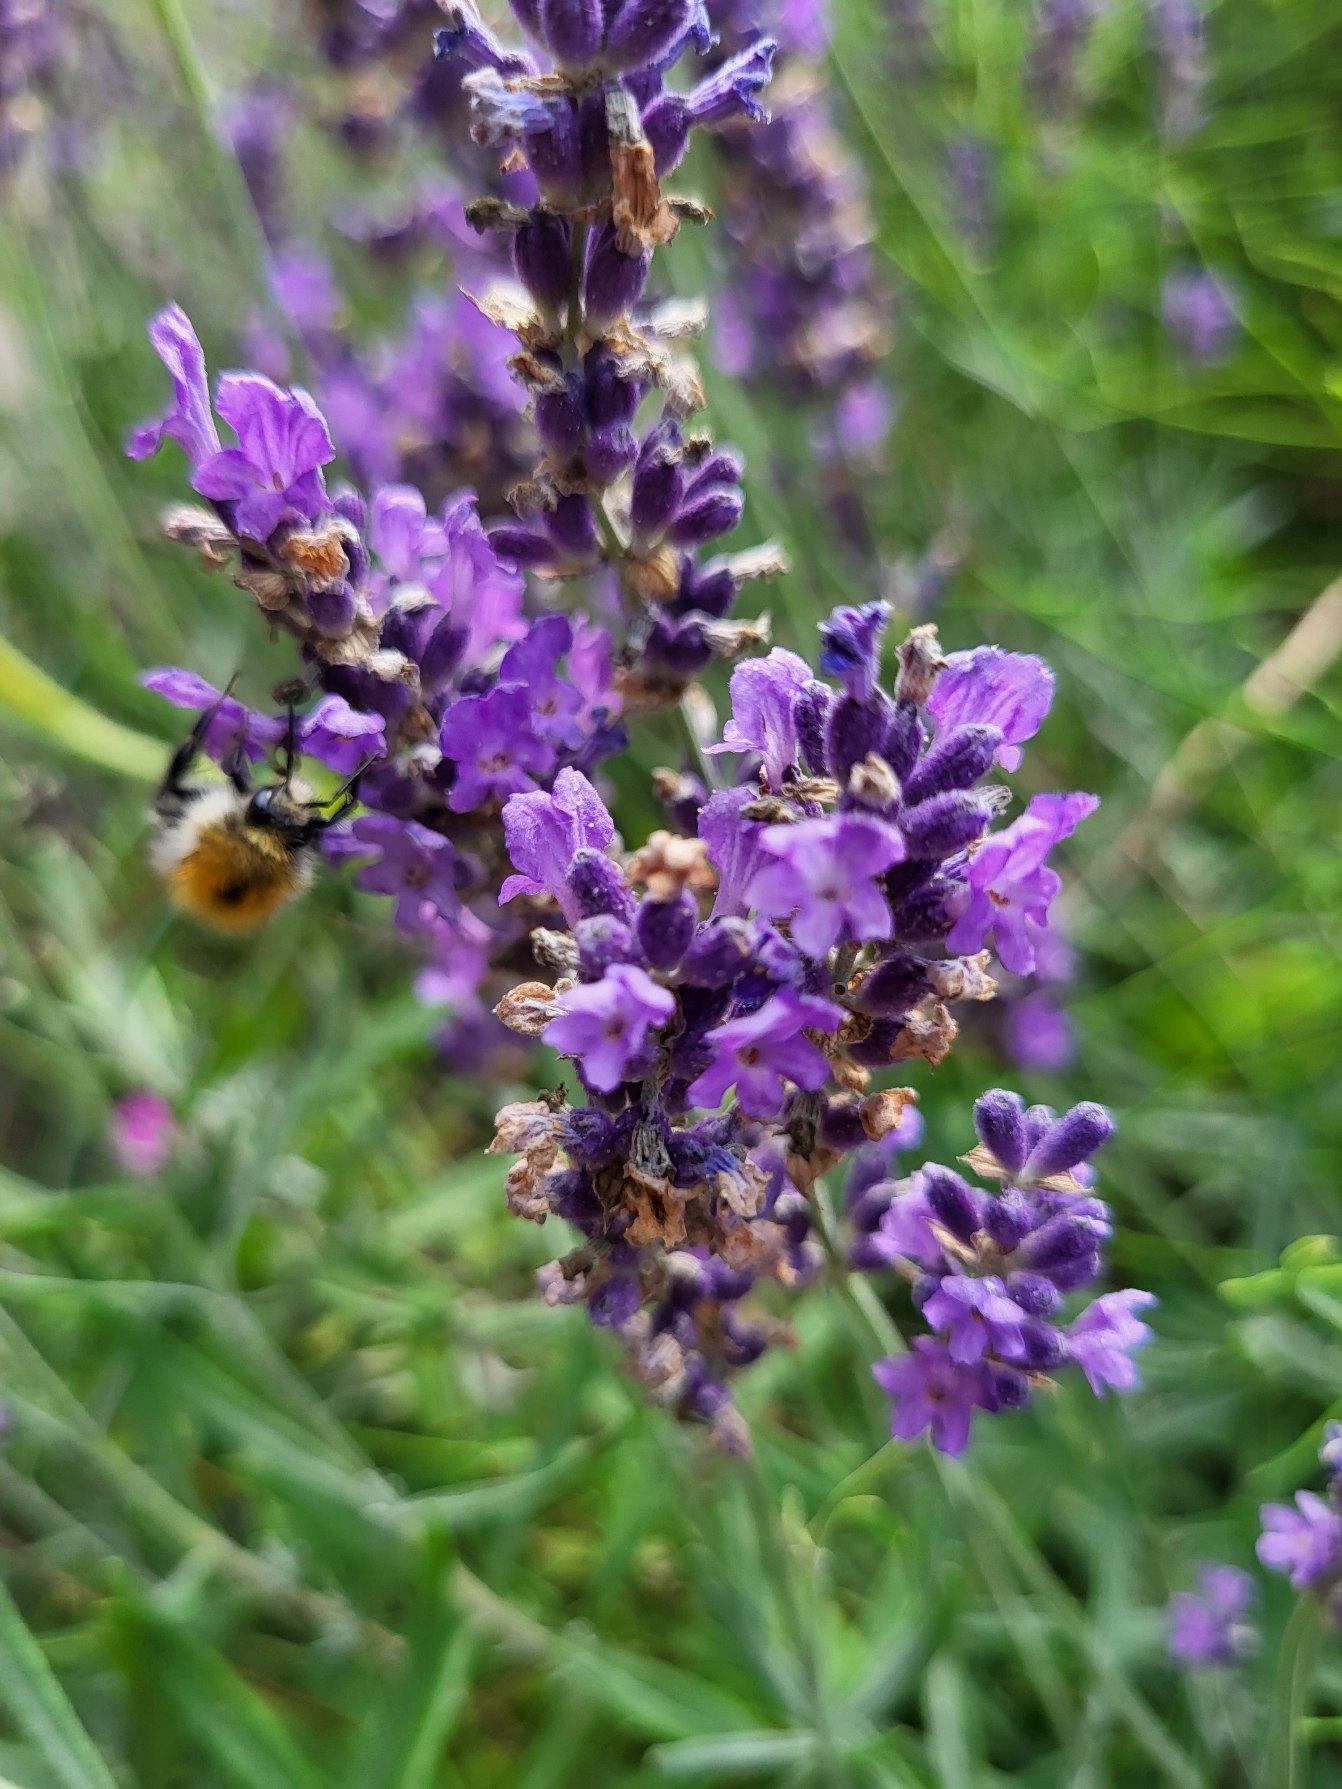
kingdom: Plantae
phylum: Tracheophyta
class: Magnoliopsida
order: Lamiales
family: Lamiaceae
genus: Lavandula
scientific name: Lavandula angustifolia
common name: Ægte lavendel
